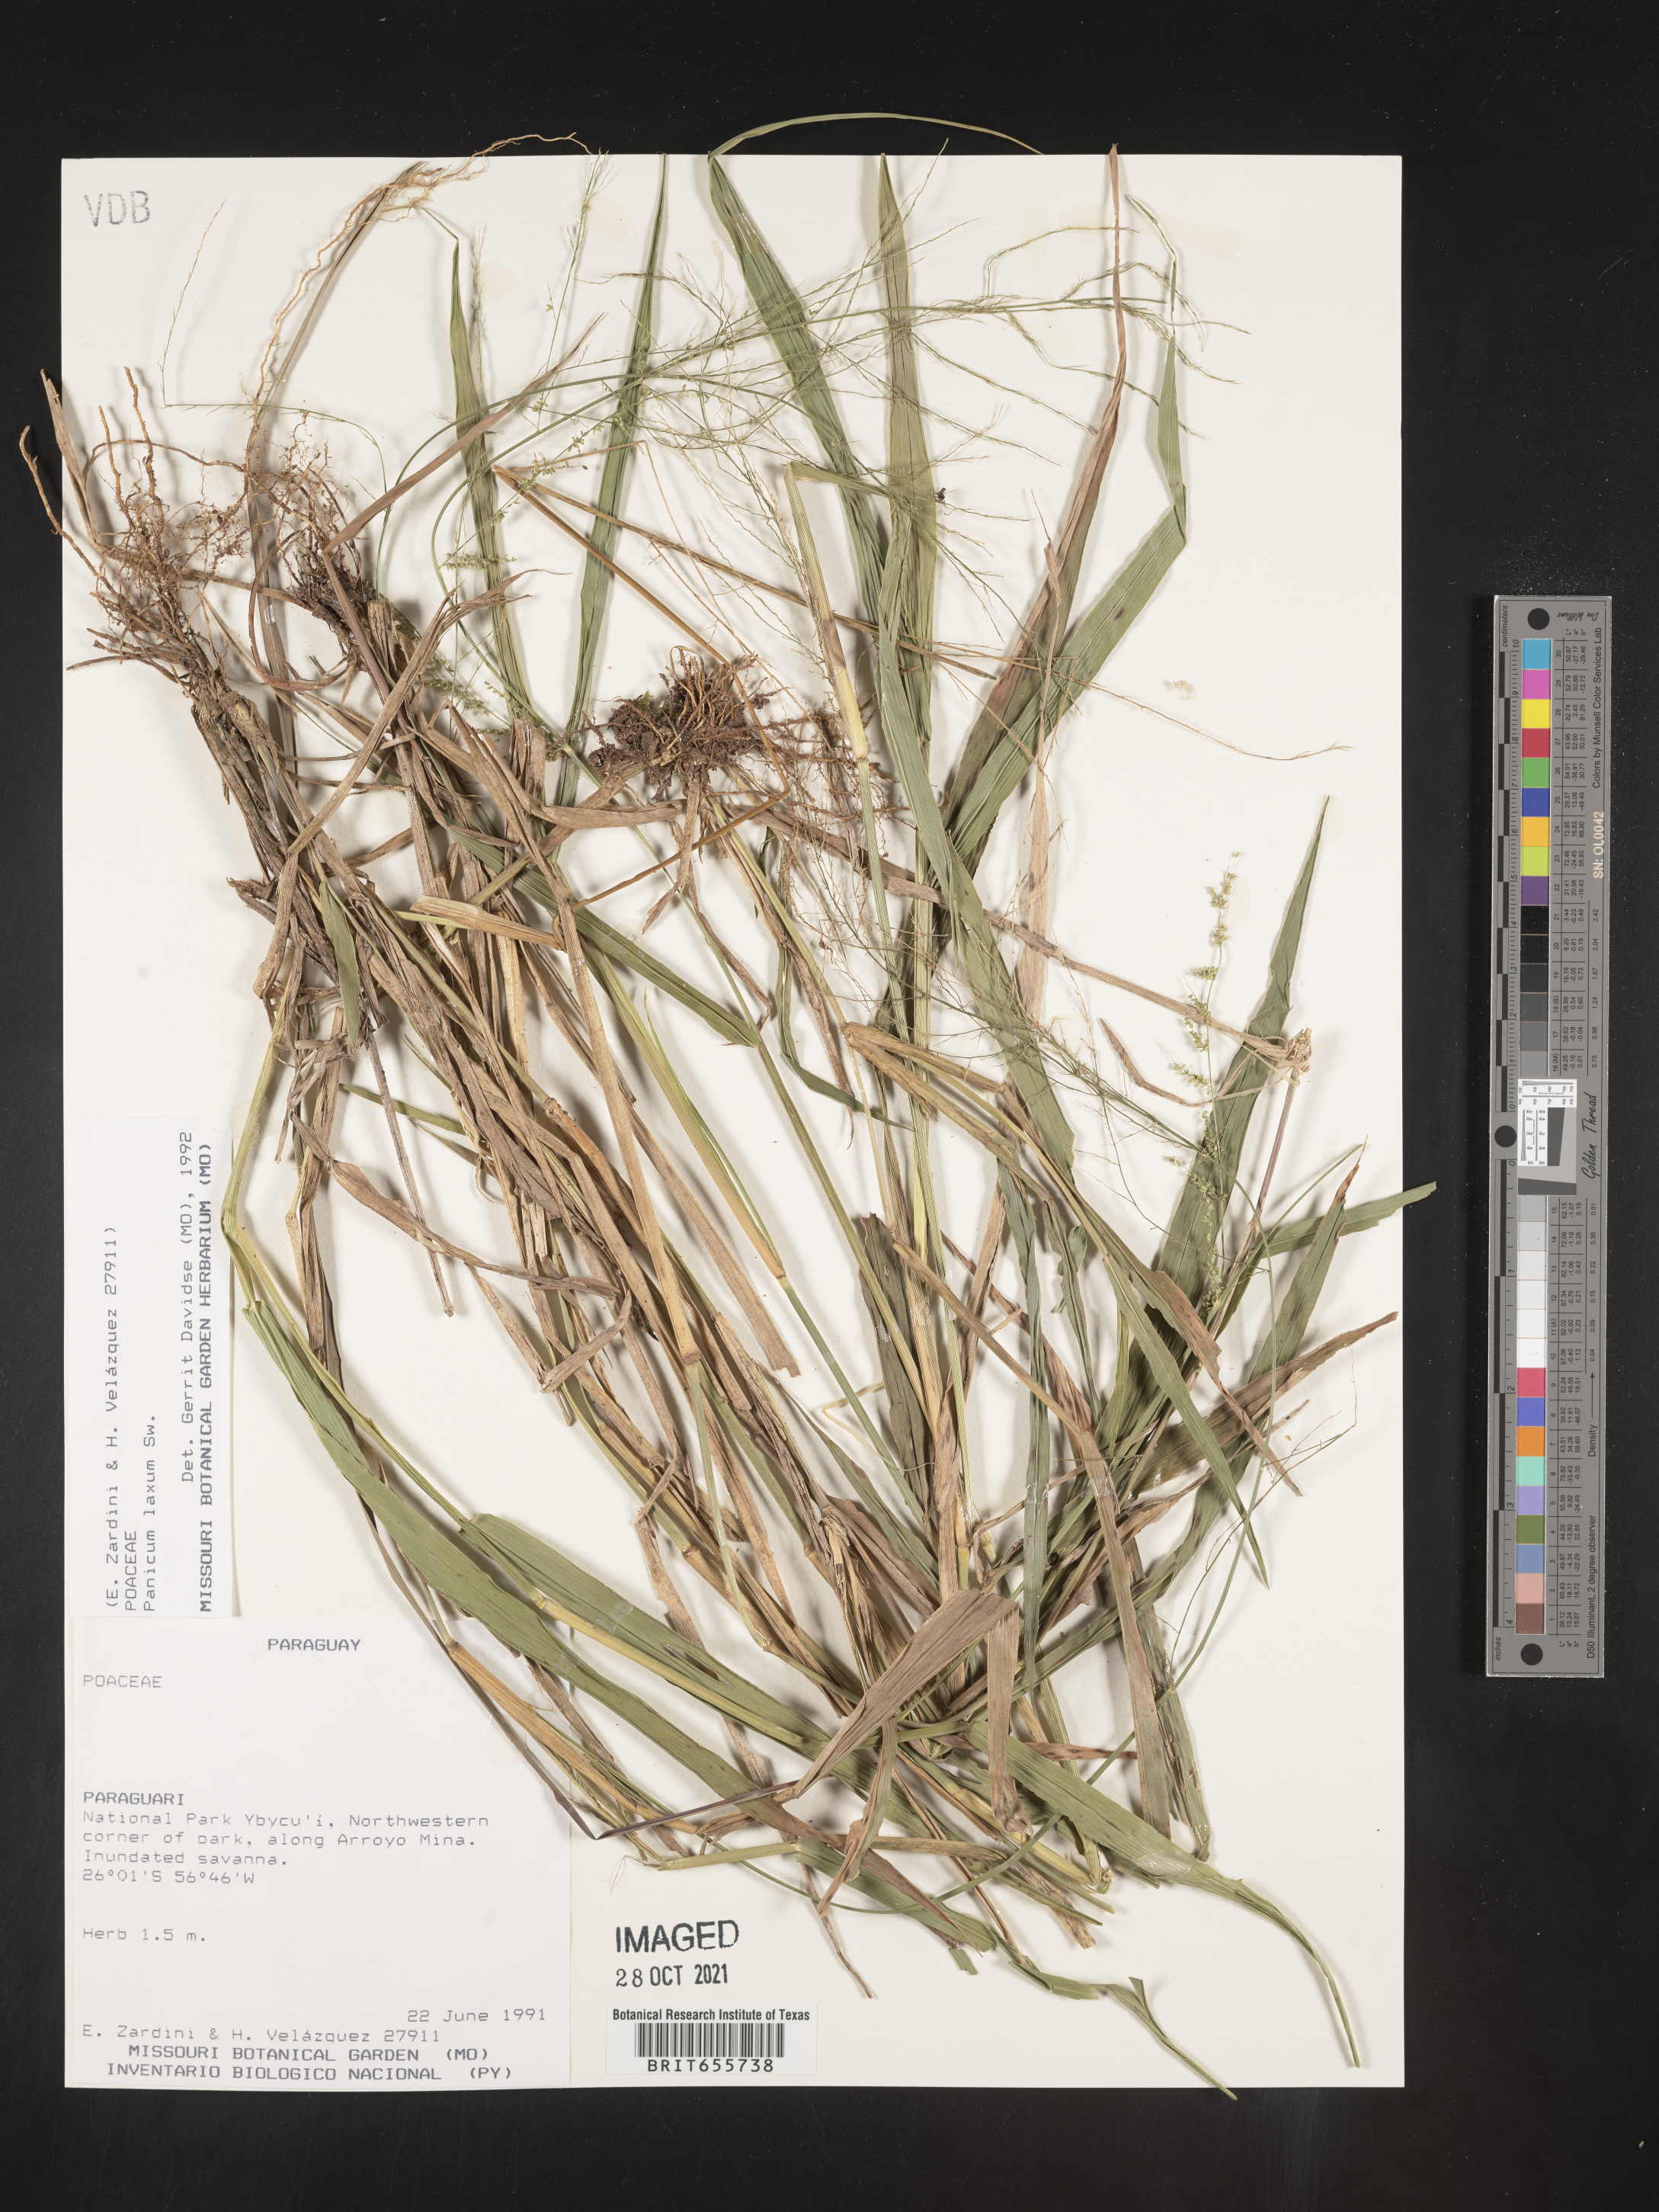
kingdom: Plantae
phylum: Tracheophyta
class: Liliopsida
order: Poales
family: Poaceae
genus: Panicum
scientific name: Panicum
